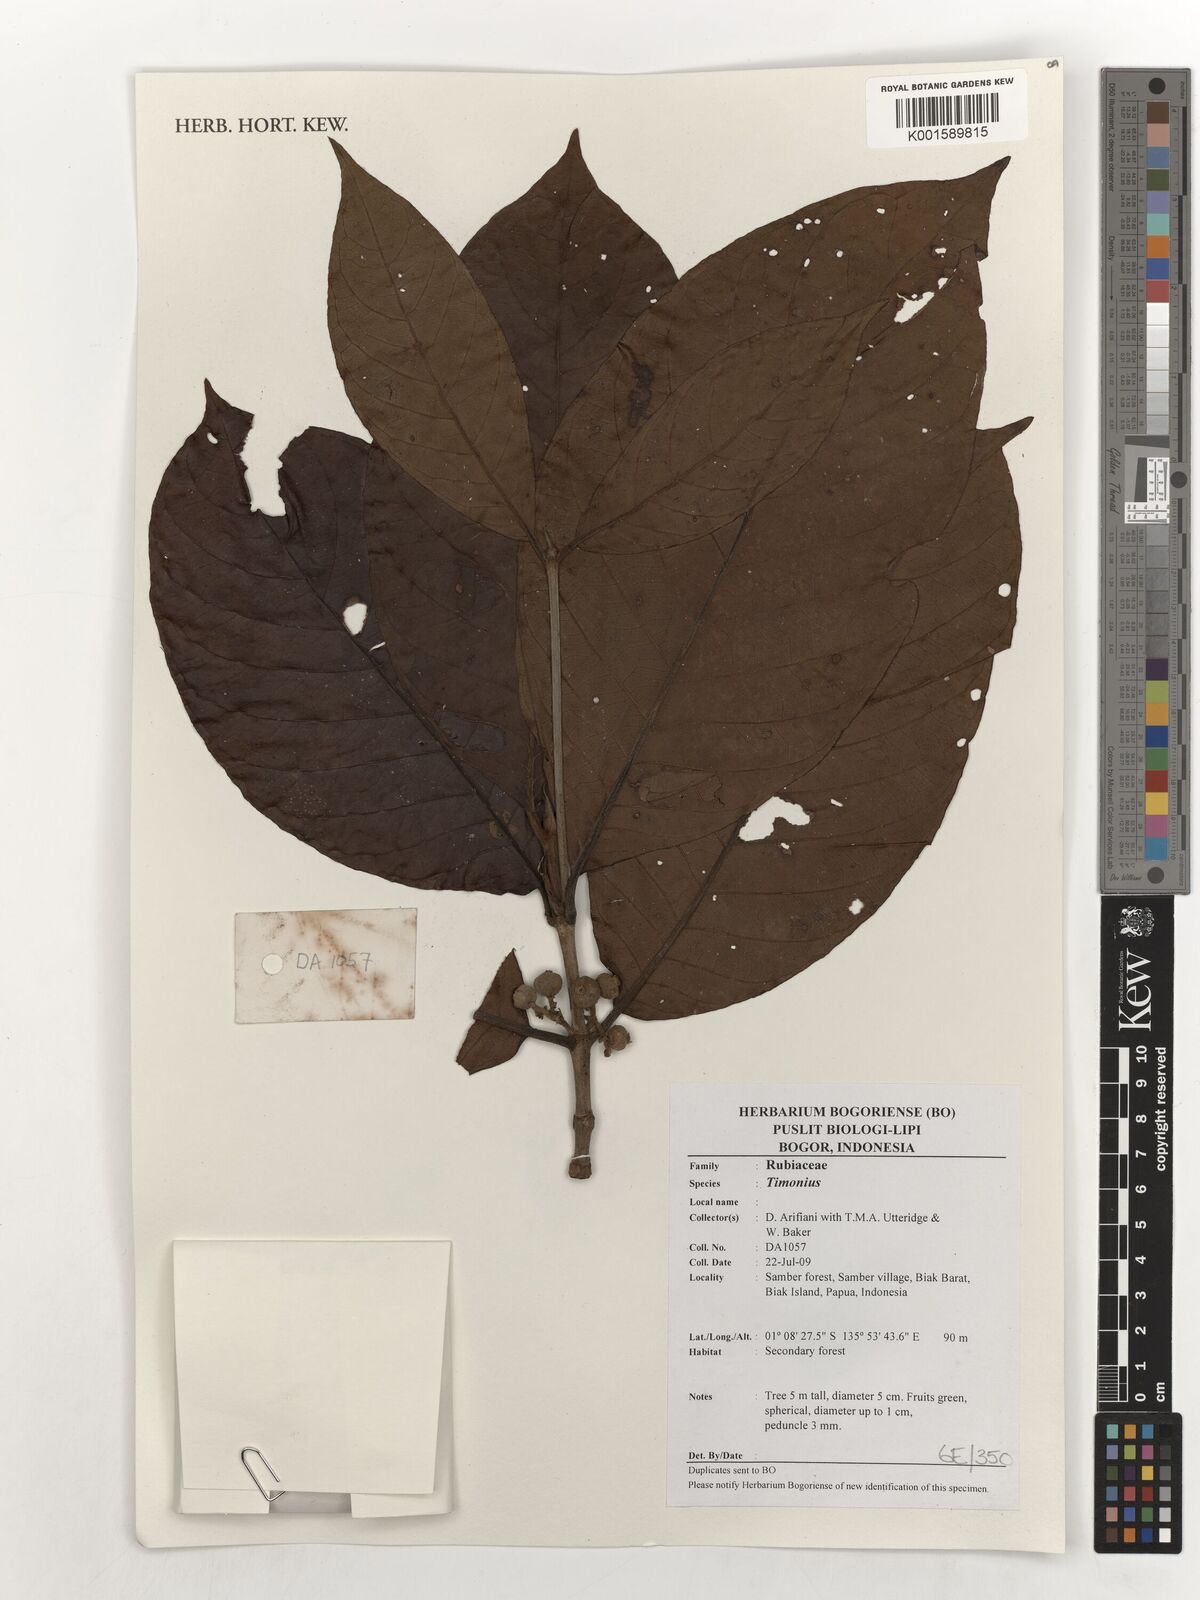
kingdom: Plantae
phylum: Tracheophyta
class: Magnoliopsida
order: Gentianales
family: Rubiaceae
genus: Timonius
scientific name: Timonius
